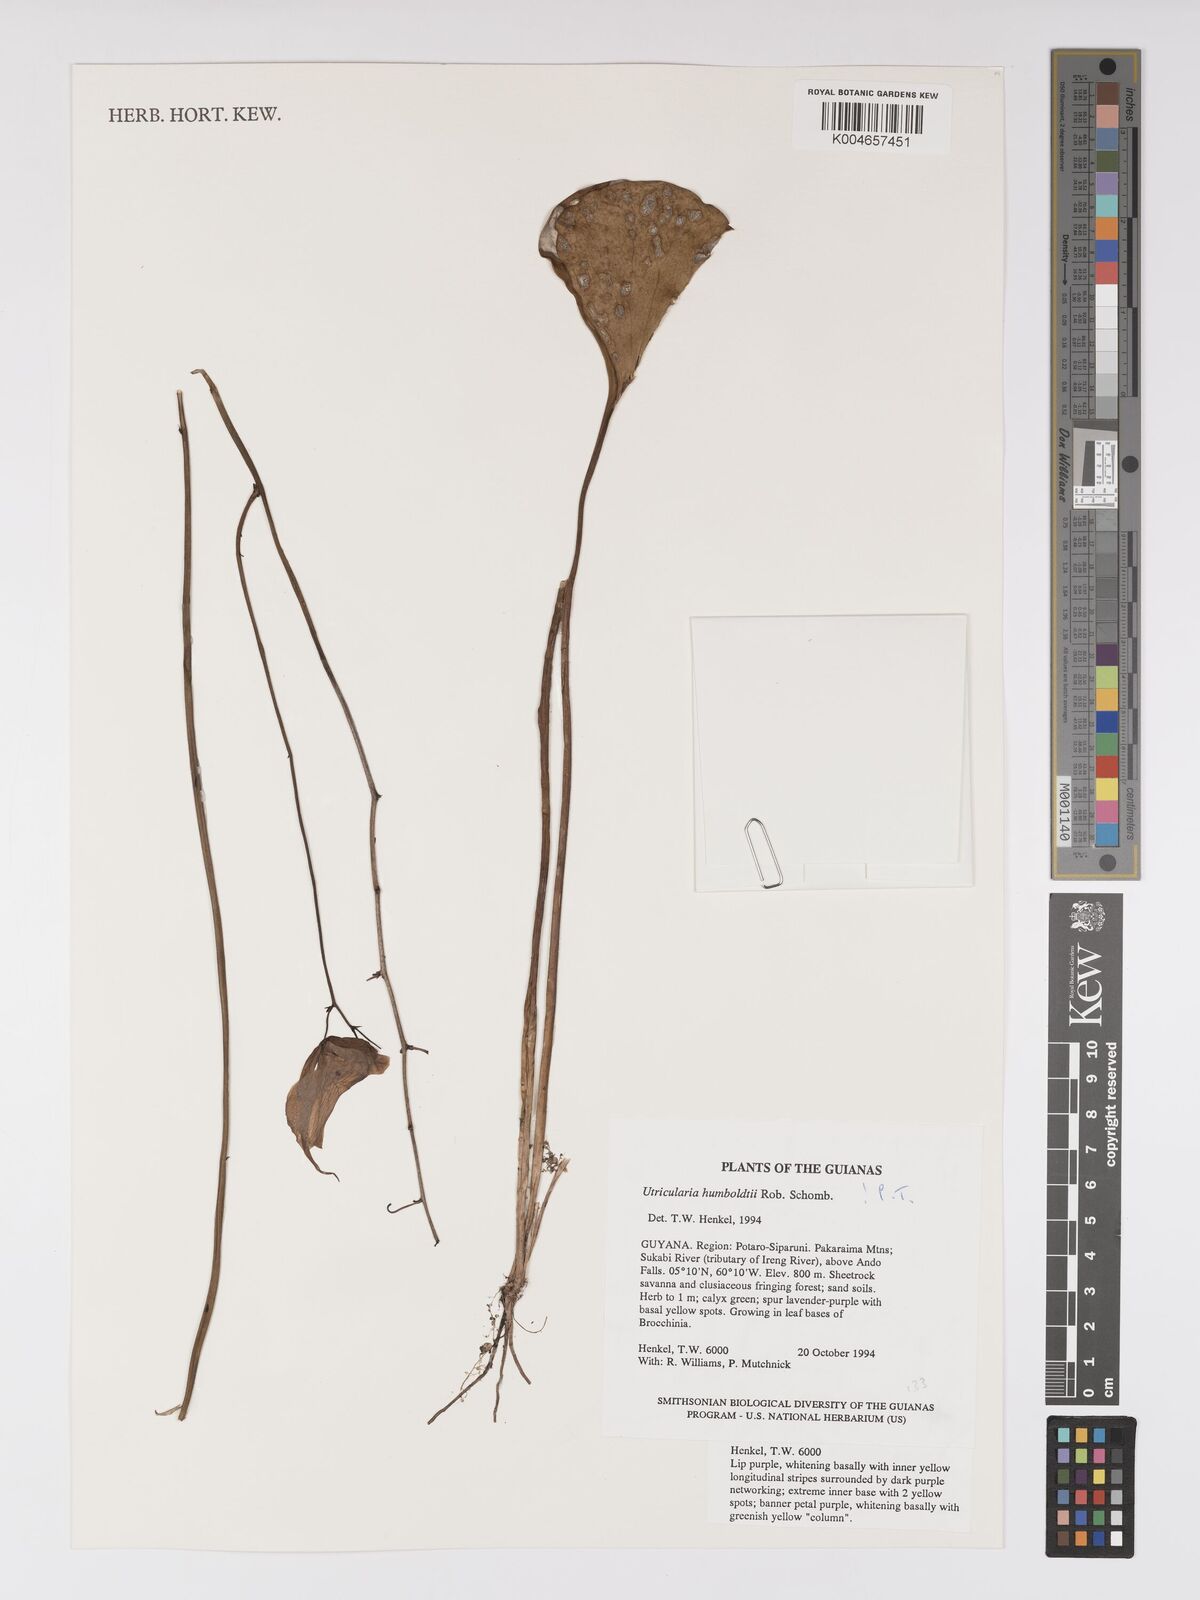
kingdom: Plantae
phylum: Tracheophyta
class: Magnoliopsida
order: Lamiales
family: Lentibulariaceae
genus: Utricularia
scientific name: Utricularia humboldtii
